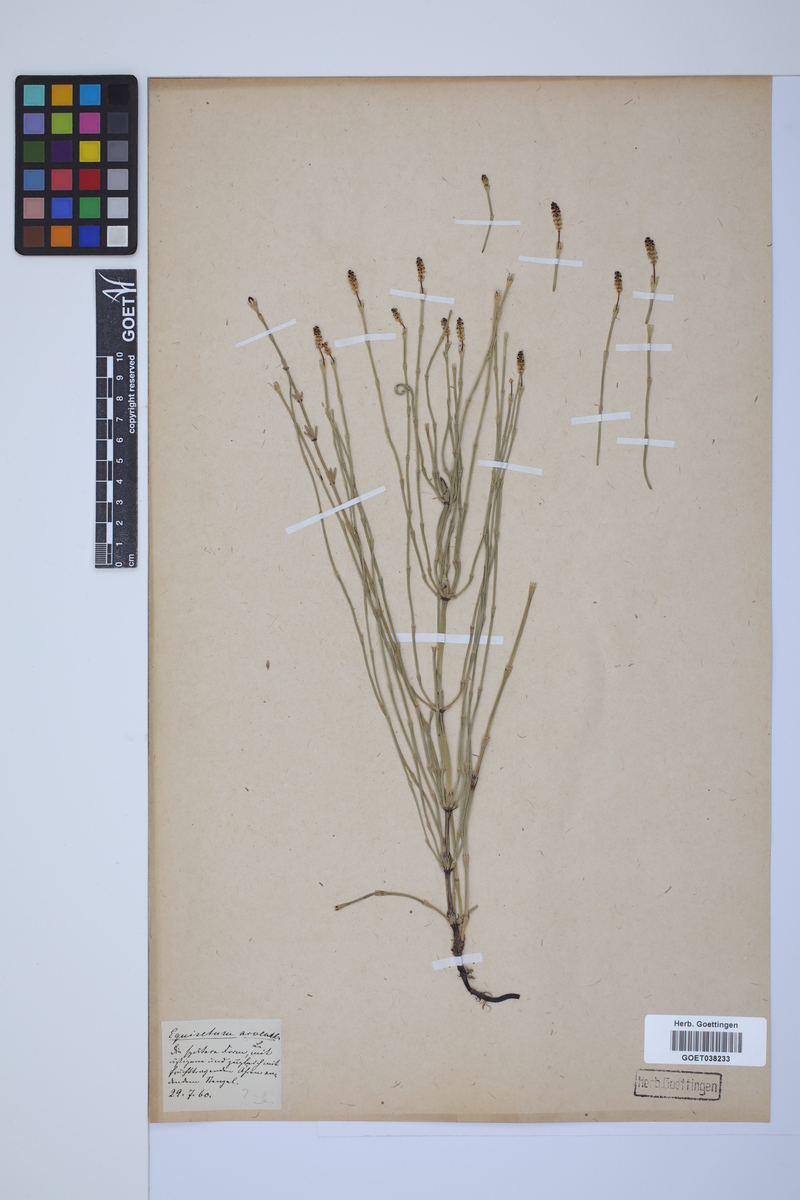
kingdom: Plantae
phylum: Tracheophyta
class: Polypodiopsida
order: Equisetales
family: Equisetaceae
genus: Equisetum
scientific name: Equisetum arvense
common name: Field horsetail
